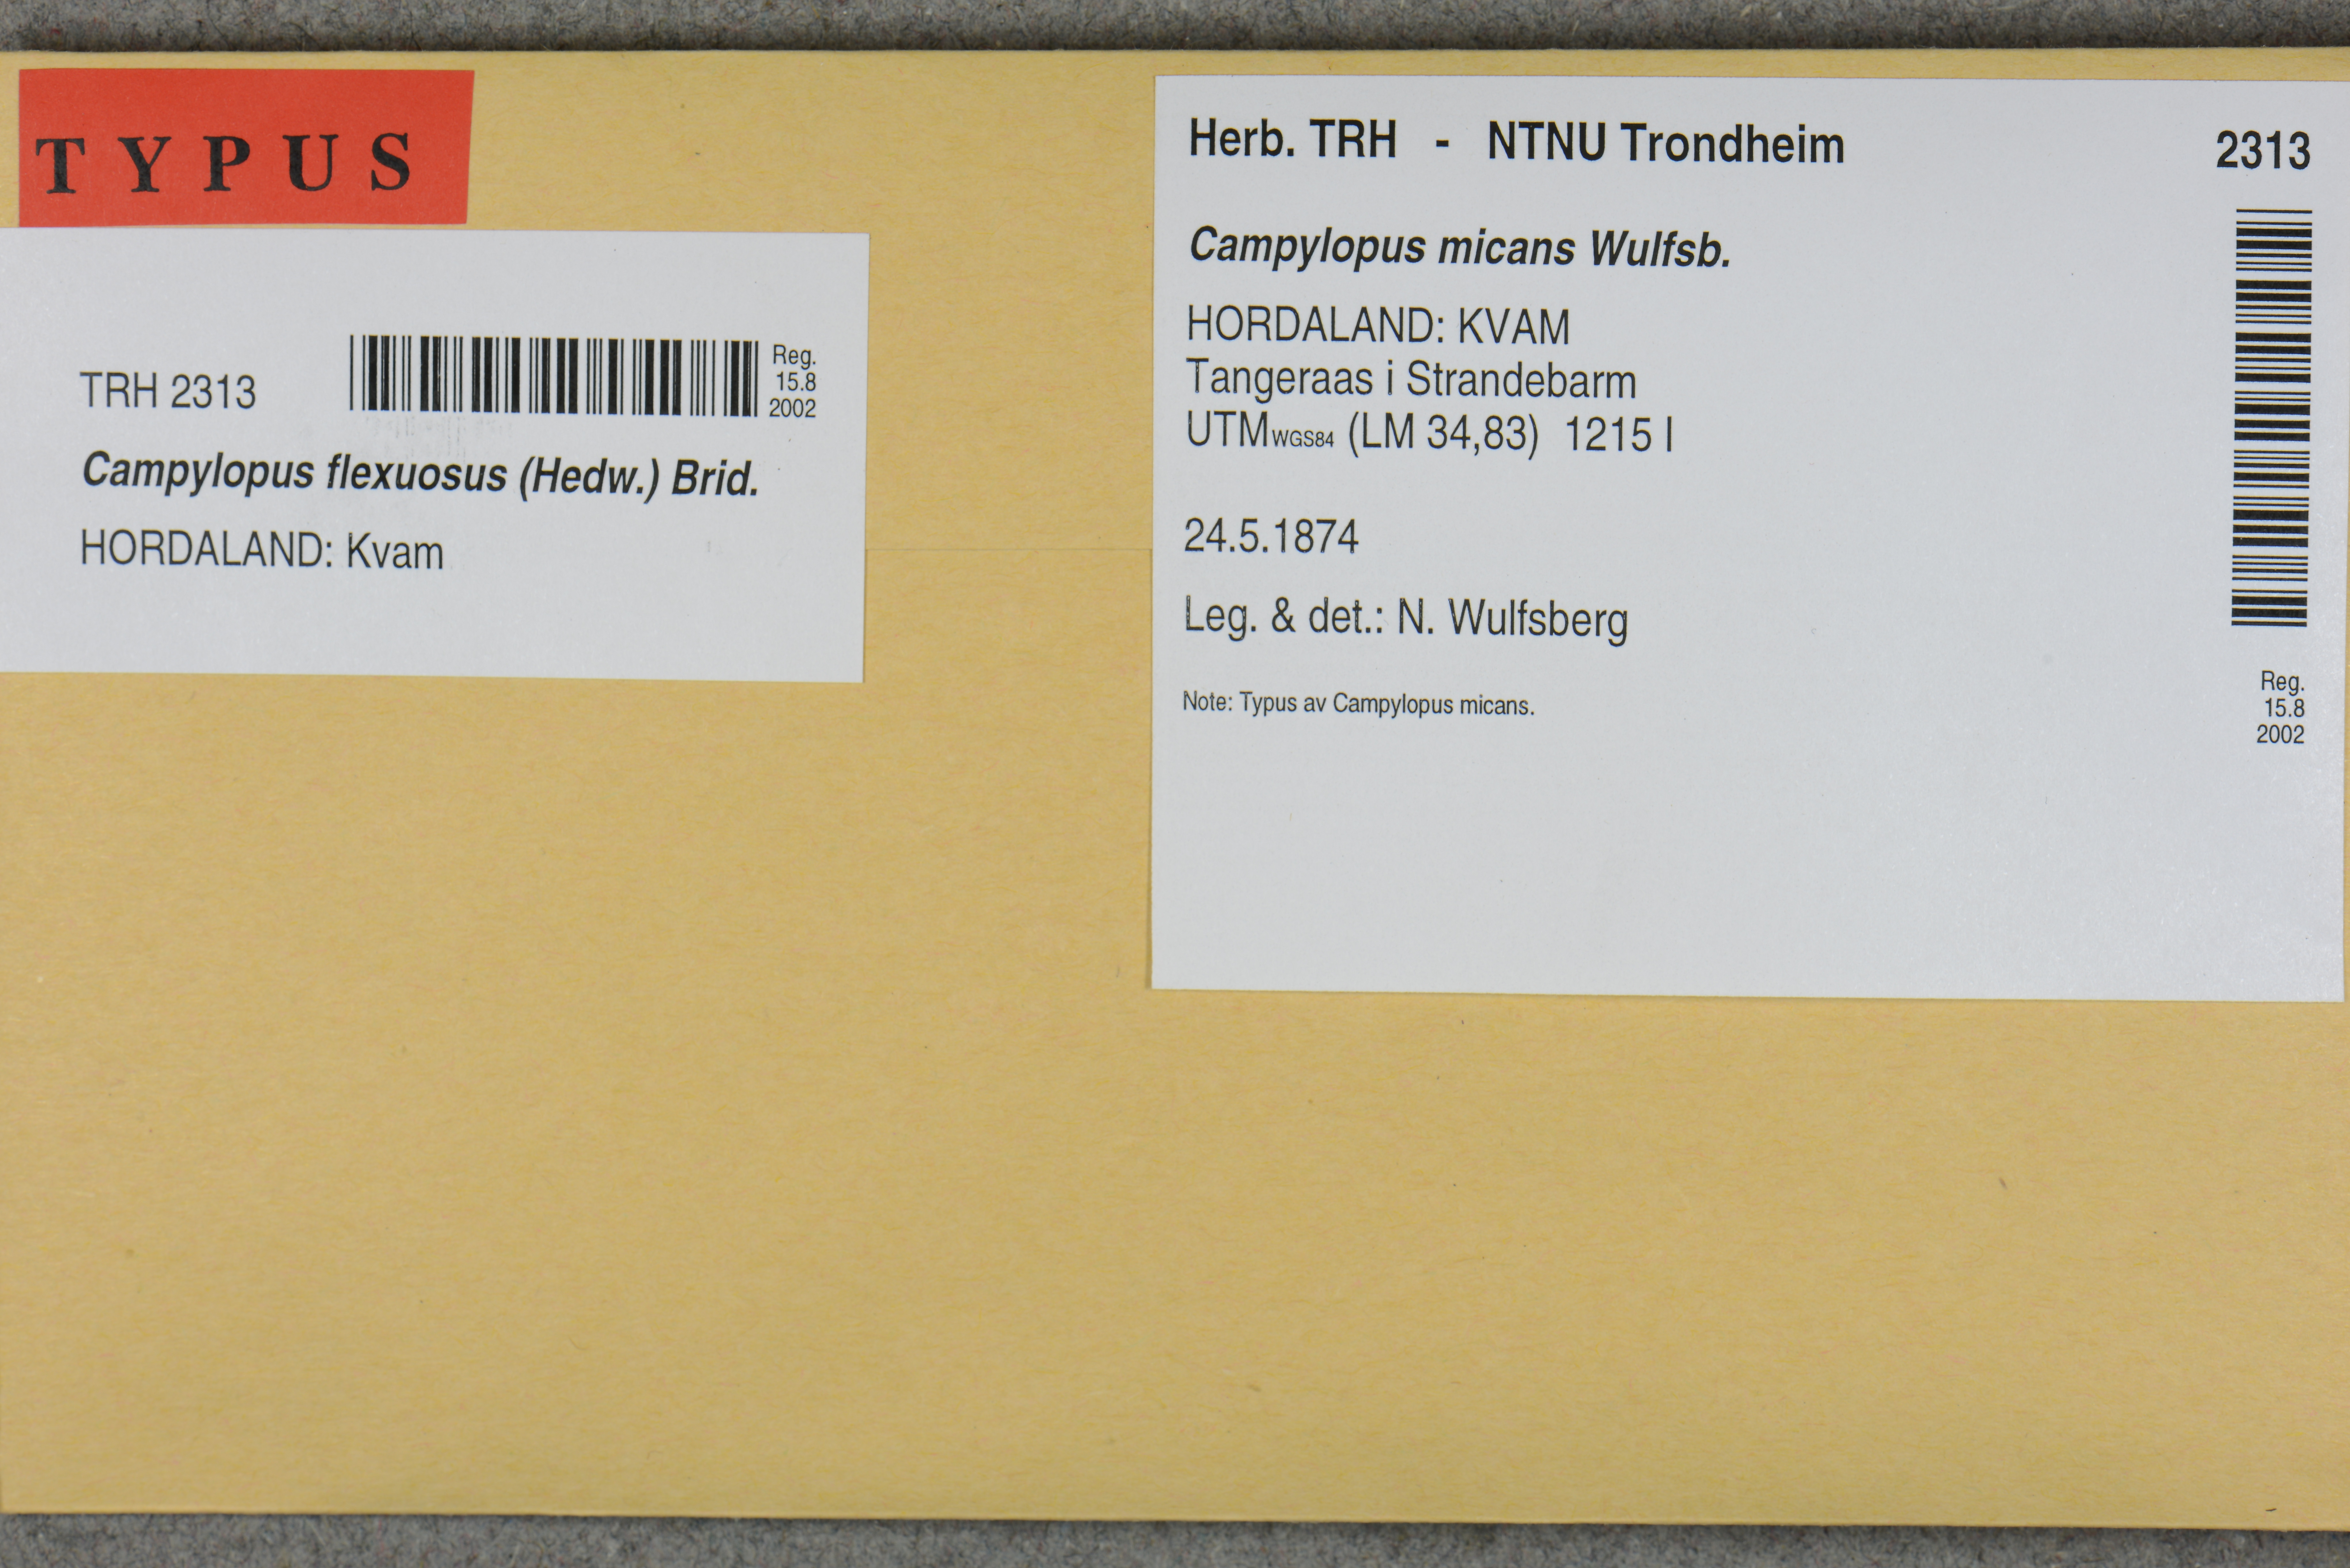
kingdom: Plantae
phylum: Bryophyta
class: Bryopsida
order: Dicranales
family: Leucobryaceae
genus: Campylopus
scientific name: Campylopus flexuosus
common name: Rusty swan-neck moss
